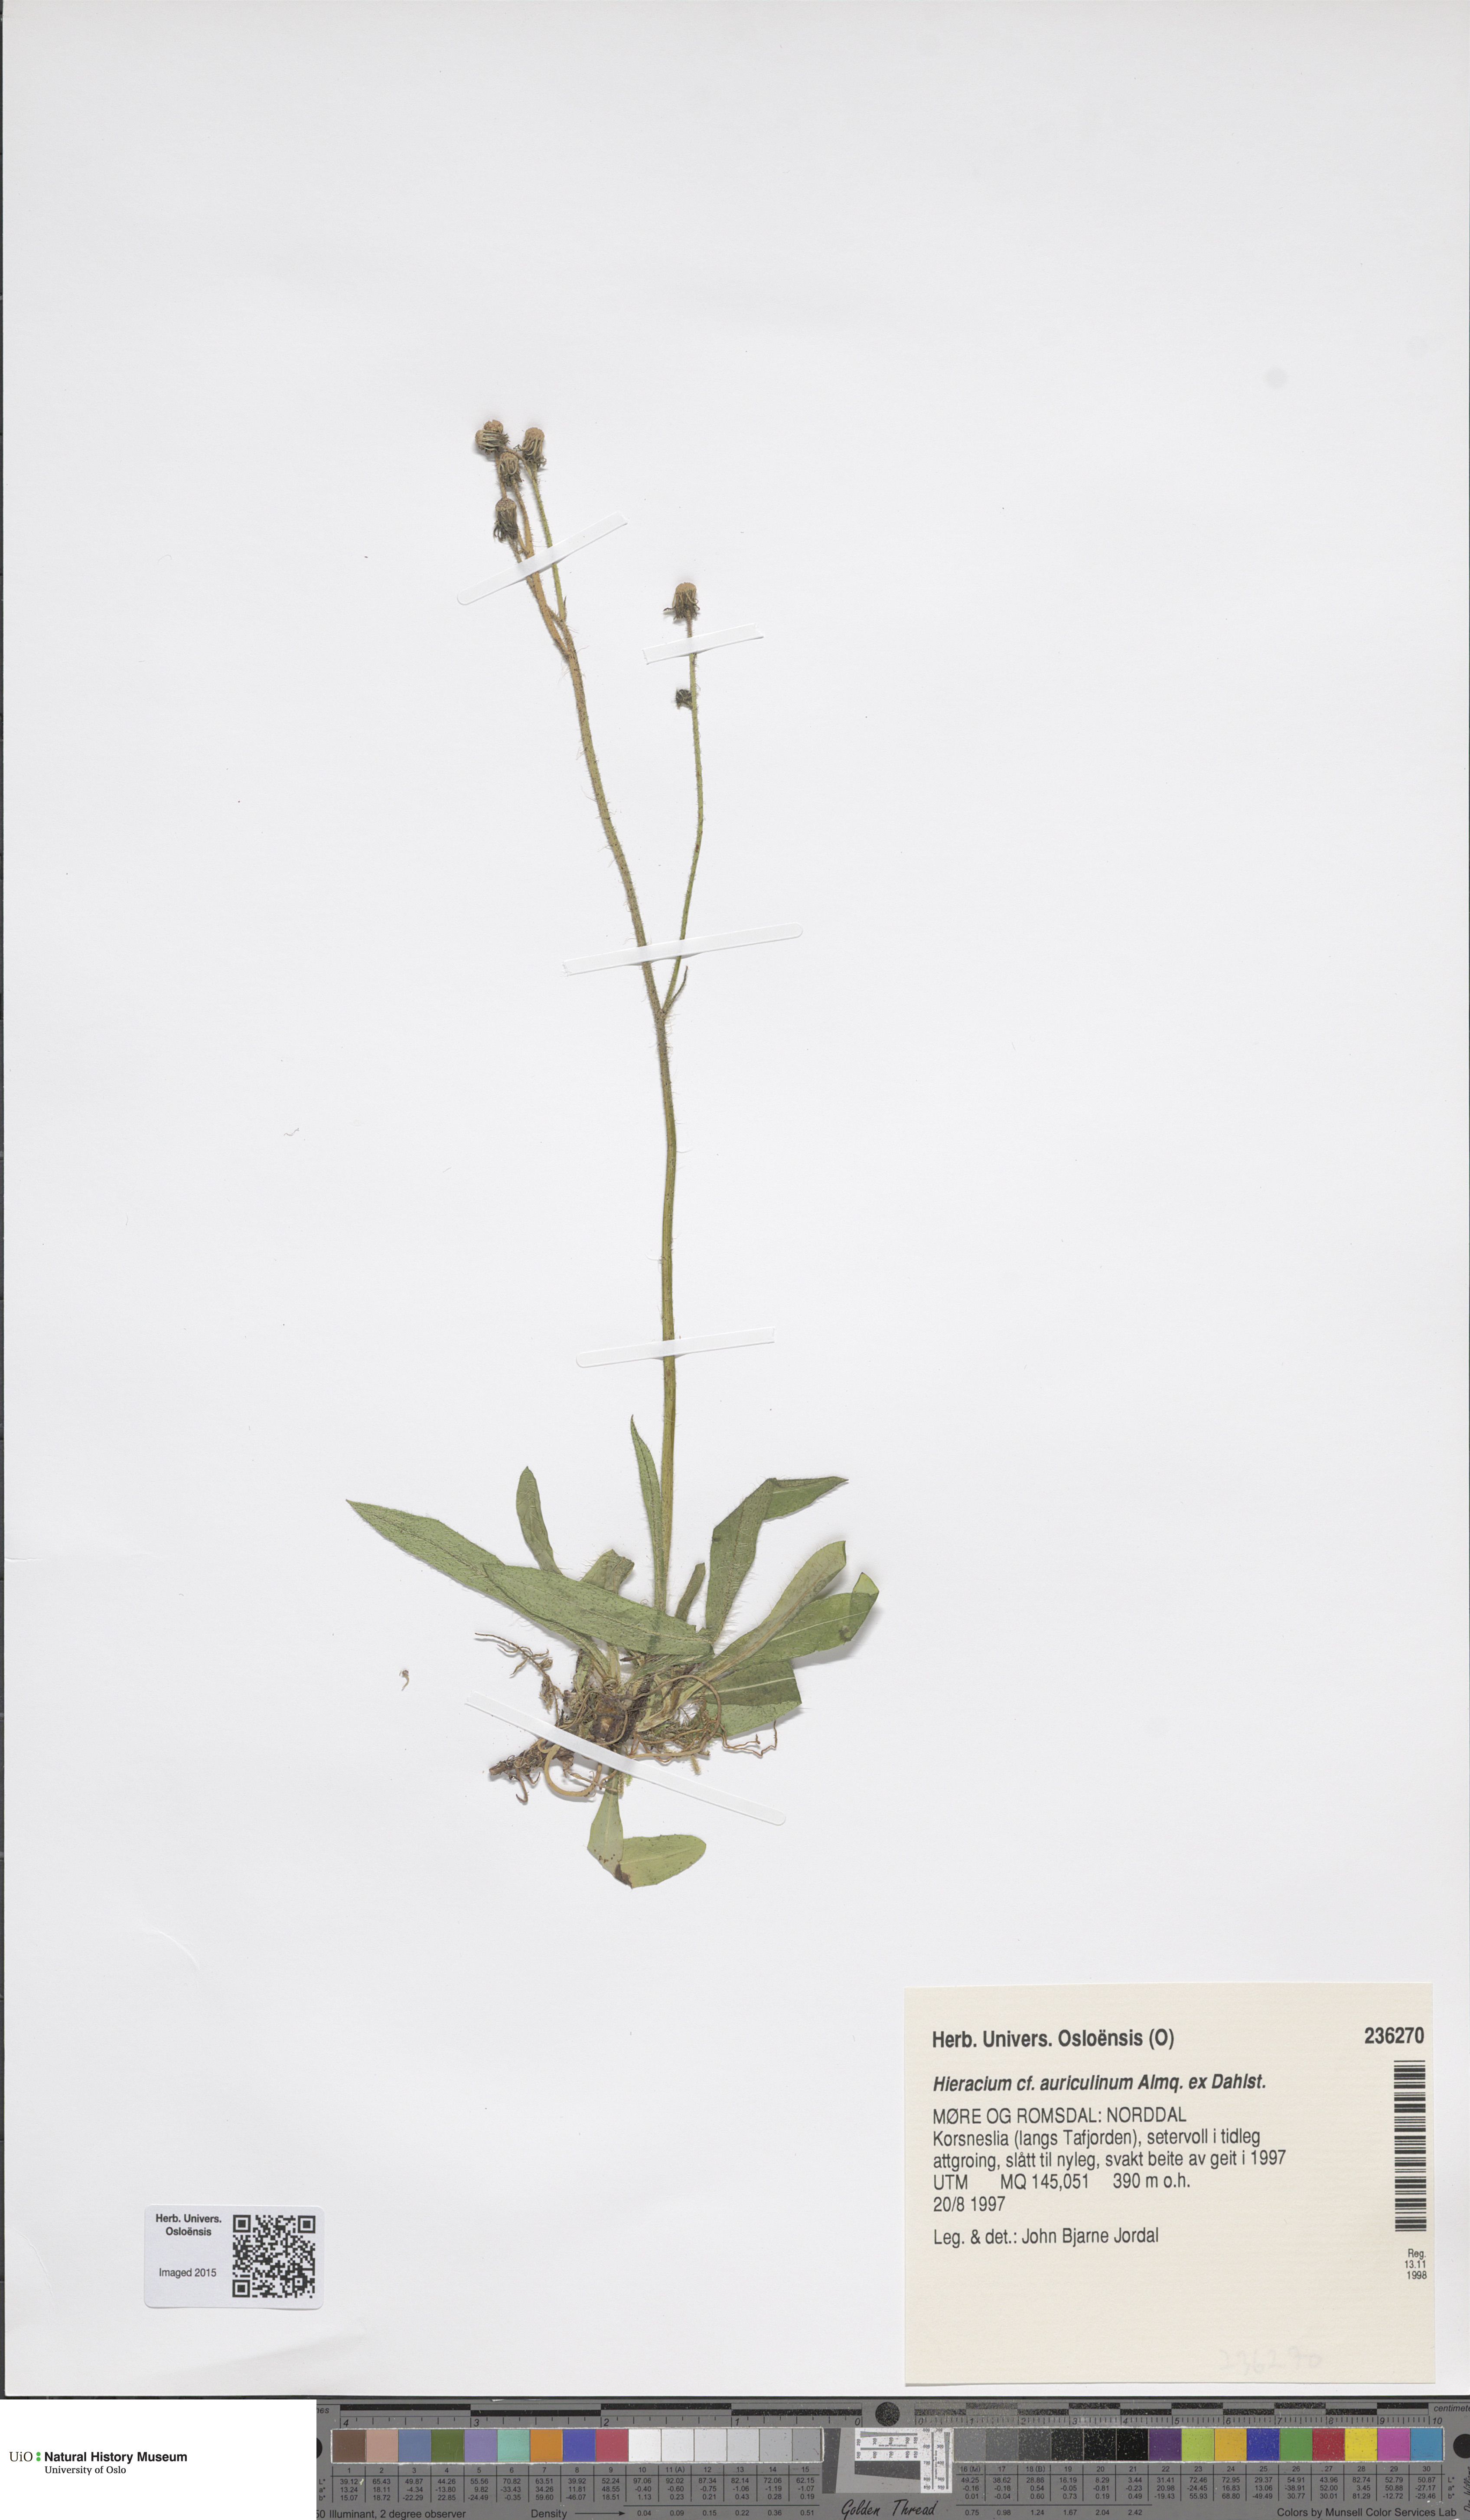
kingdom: Plantae
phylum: Tracheophyta
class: Magnoliopsida
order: Asterales
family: Asteraceae
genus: Pilosella
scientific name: Pilosella dubia
